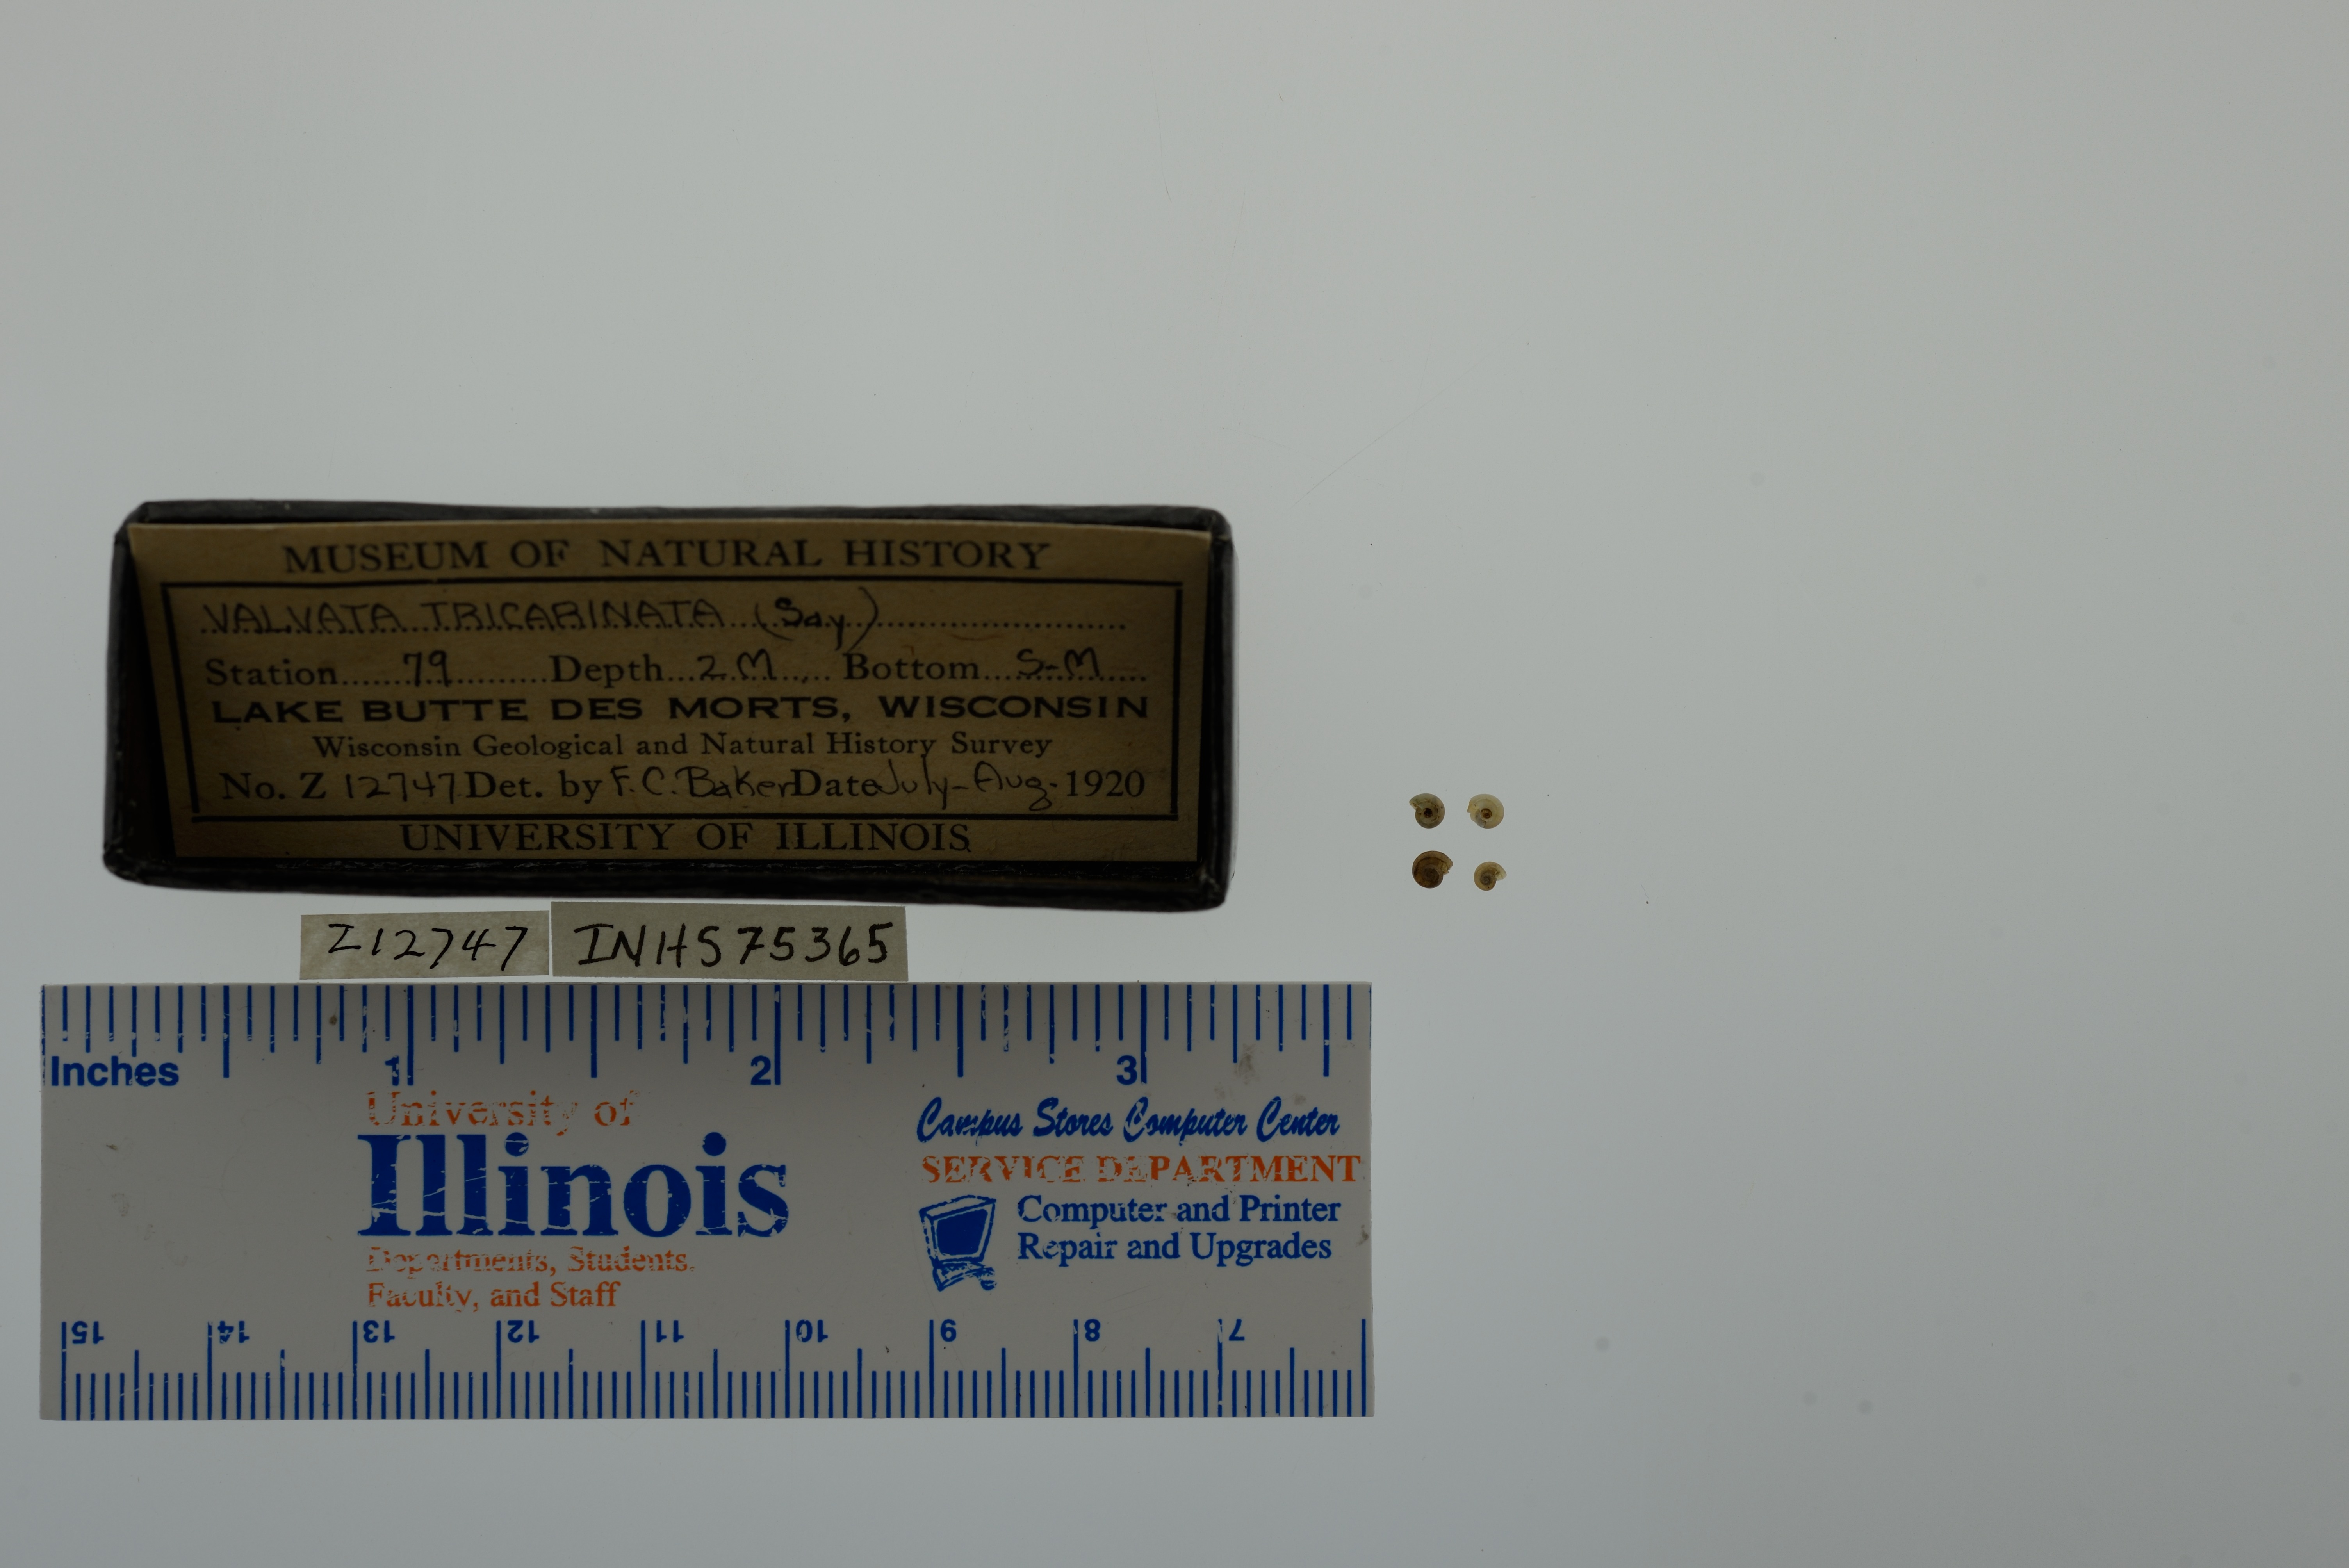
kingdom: Animalia
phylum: Mollusca
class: Gastropoda
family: Valvatidae
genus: Valvata
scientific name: Valvata tricarinata
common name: Three-ridge valvata
